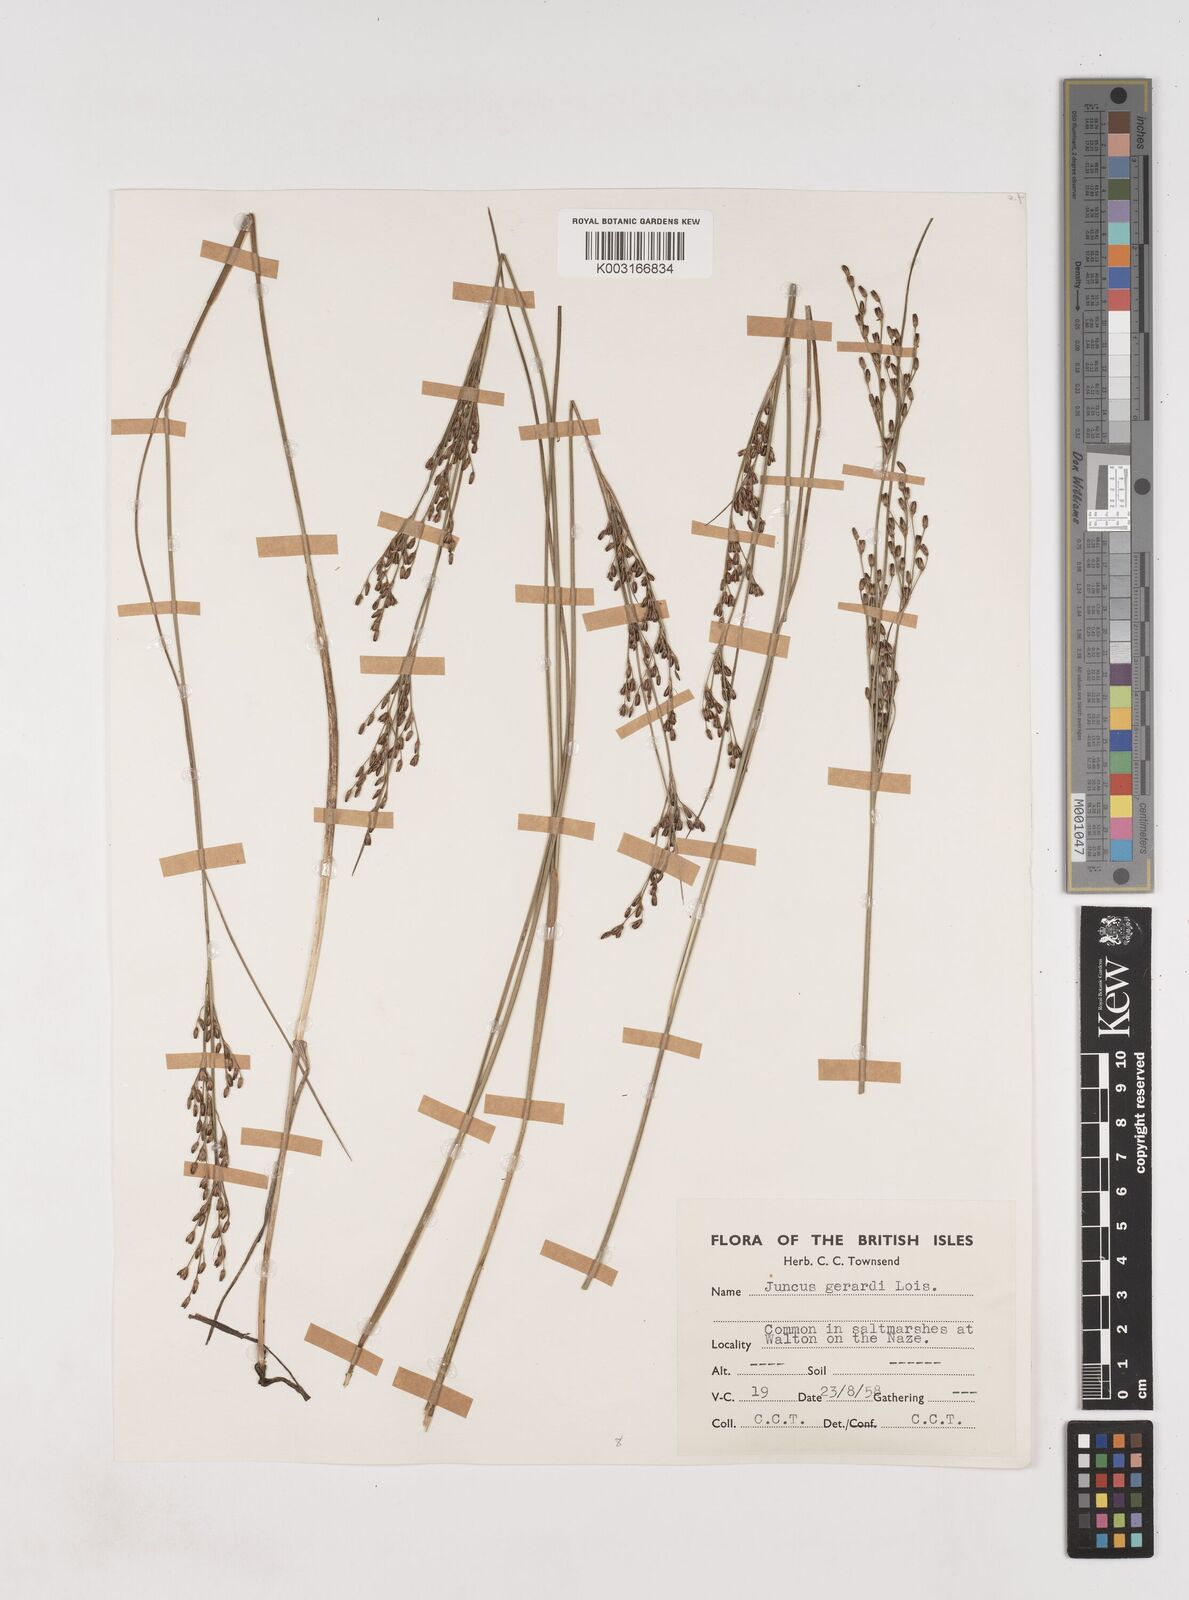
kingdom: Plantae
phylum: Tracheophyta
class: Liliopsida
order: Poales
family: Juncaceae
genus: Juncus
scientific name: Juncus gerardi
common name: Saltmarsh rush
